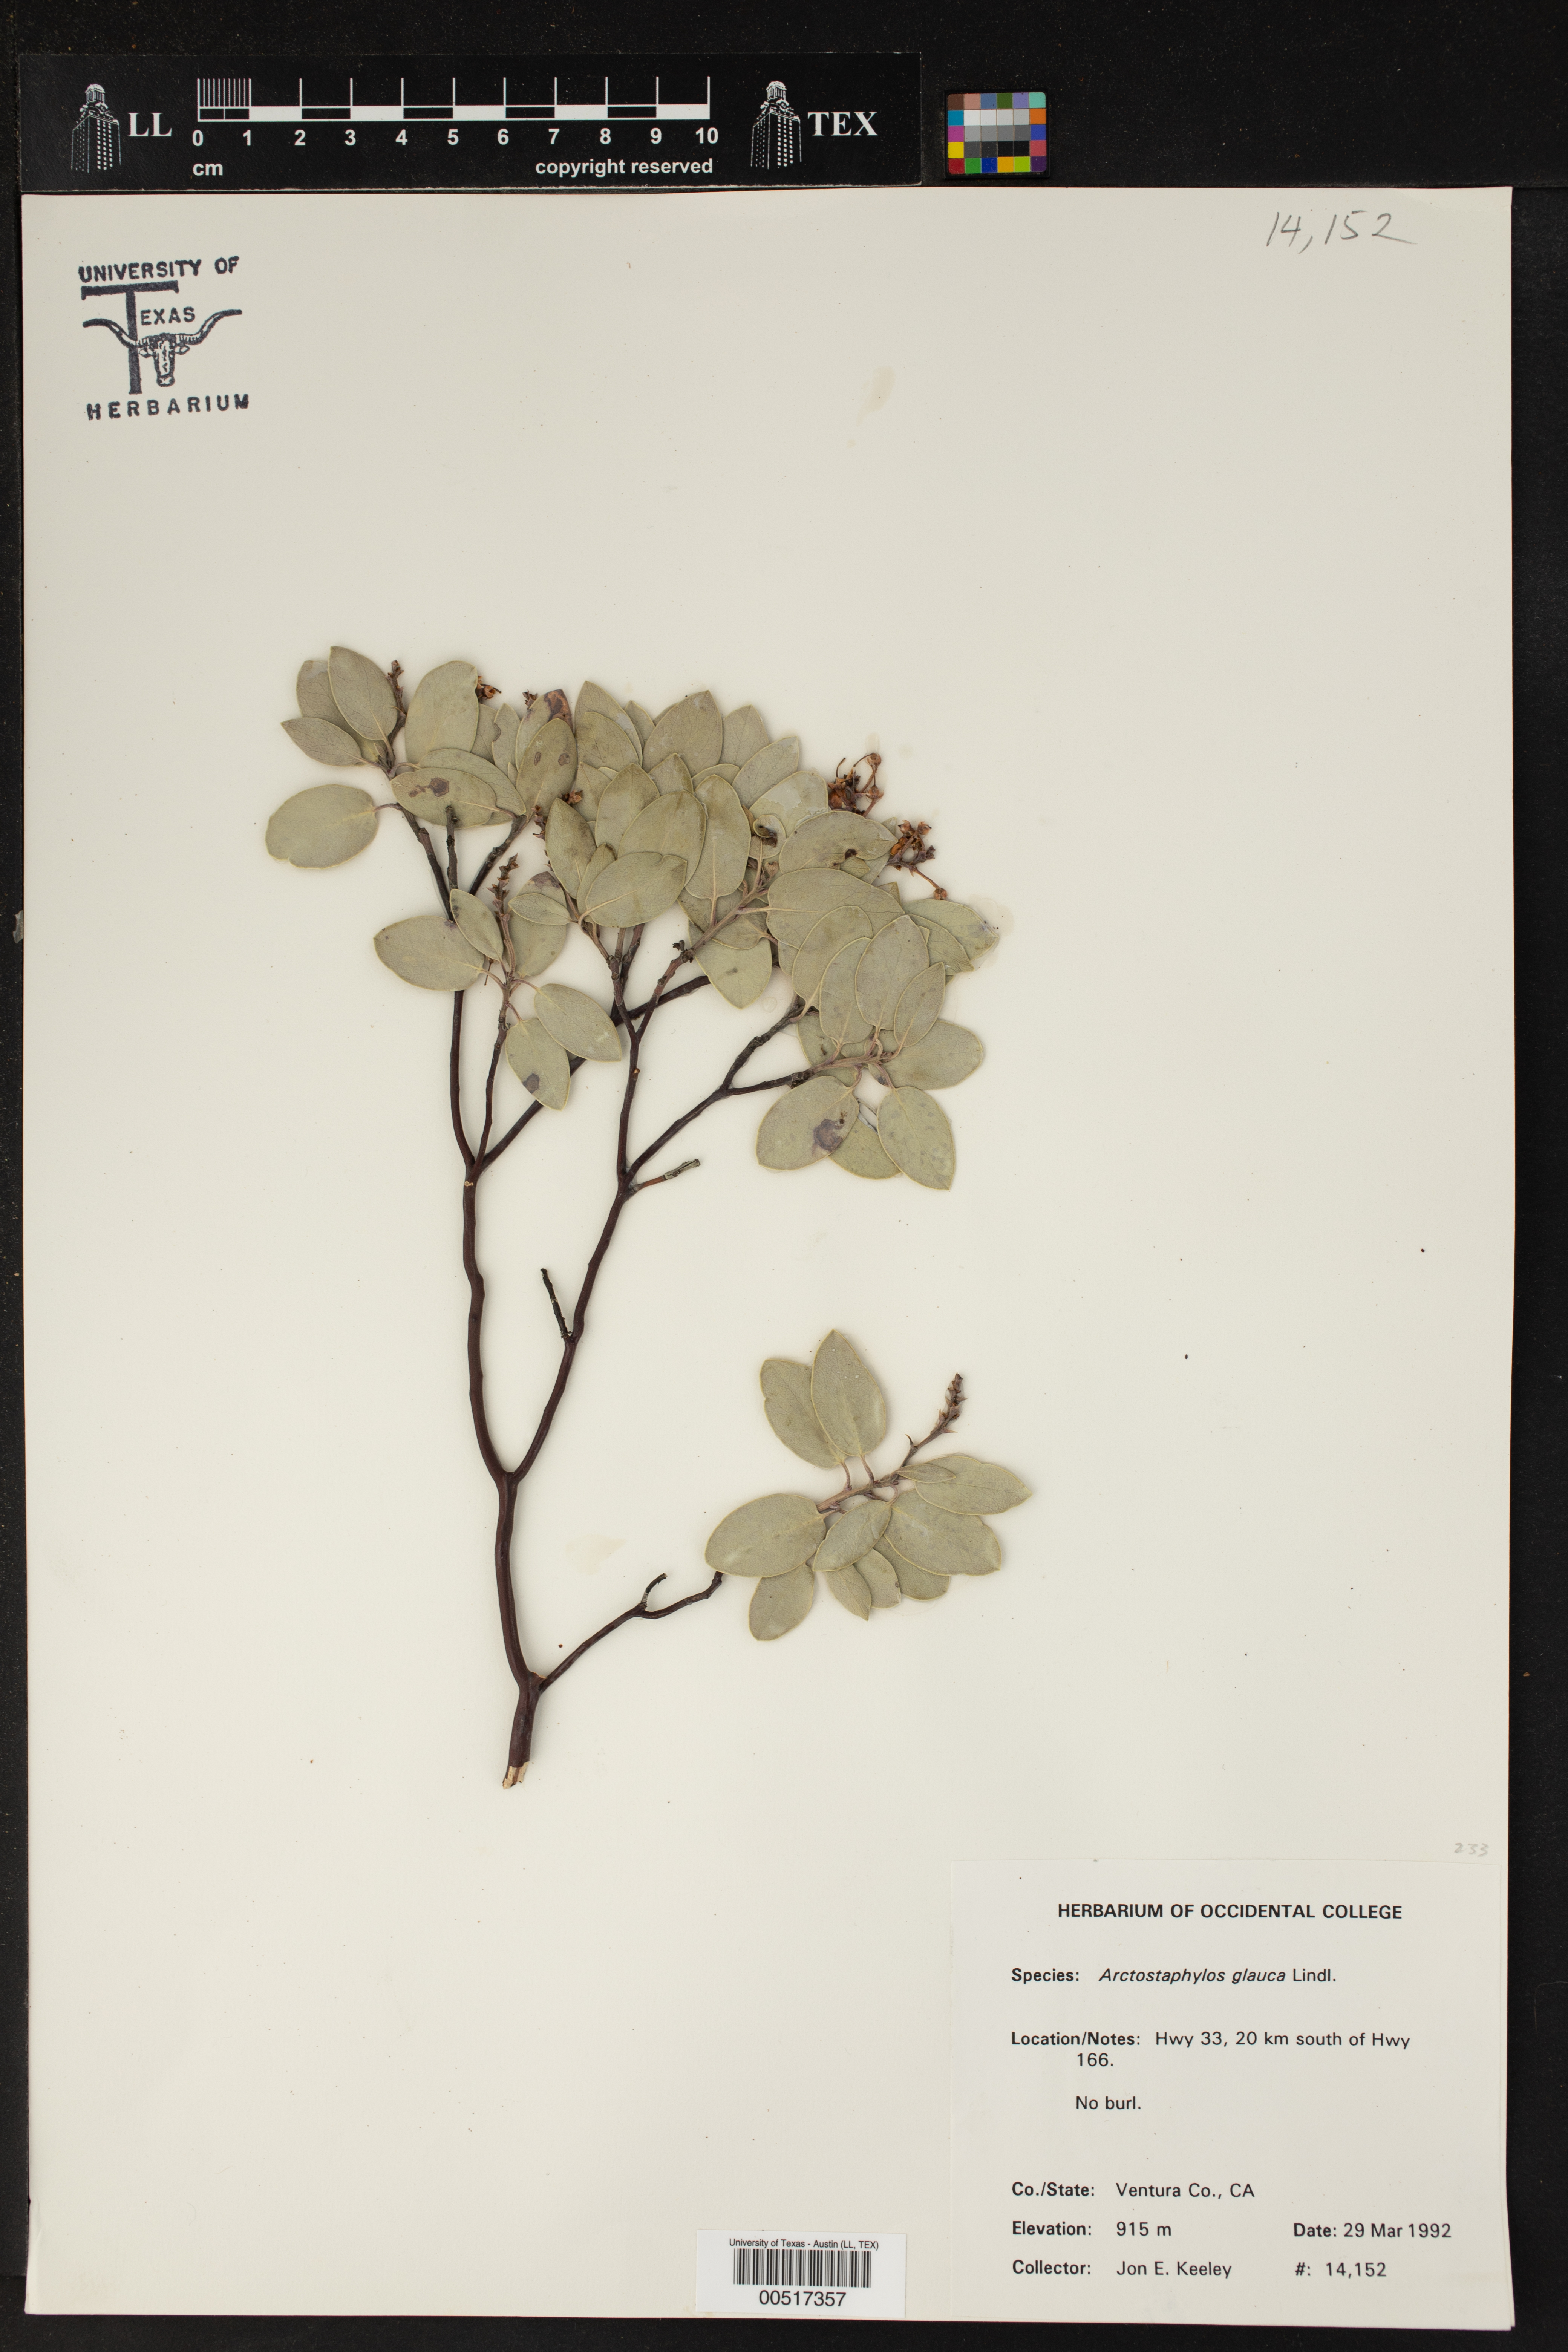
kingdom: Plantae
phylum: Tracheophyta
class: Magnoliopsida
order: Ericales
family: Ericaceae
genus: Arctostaphylos
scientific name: Arctostaphylos glauca
